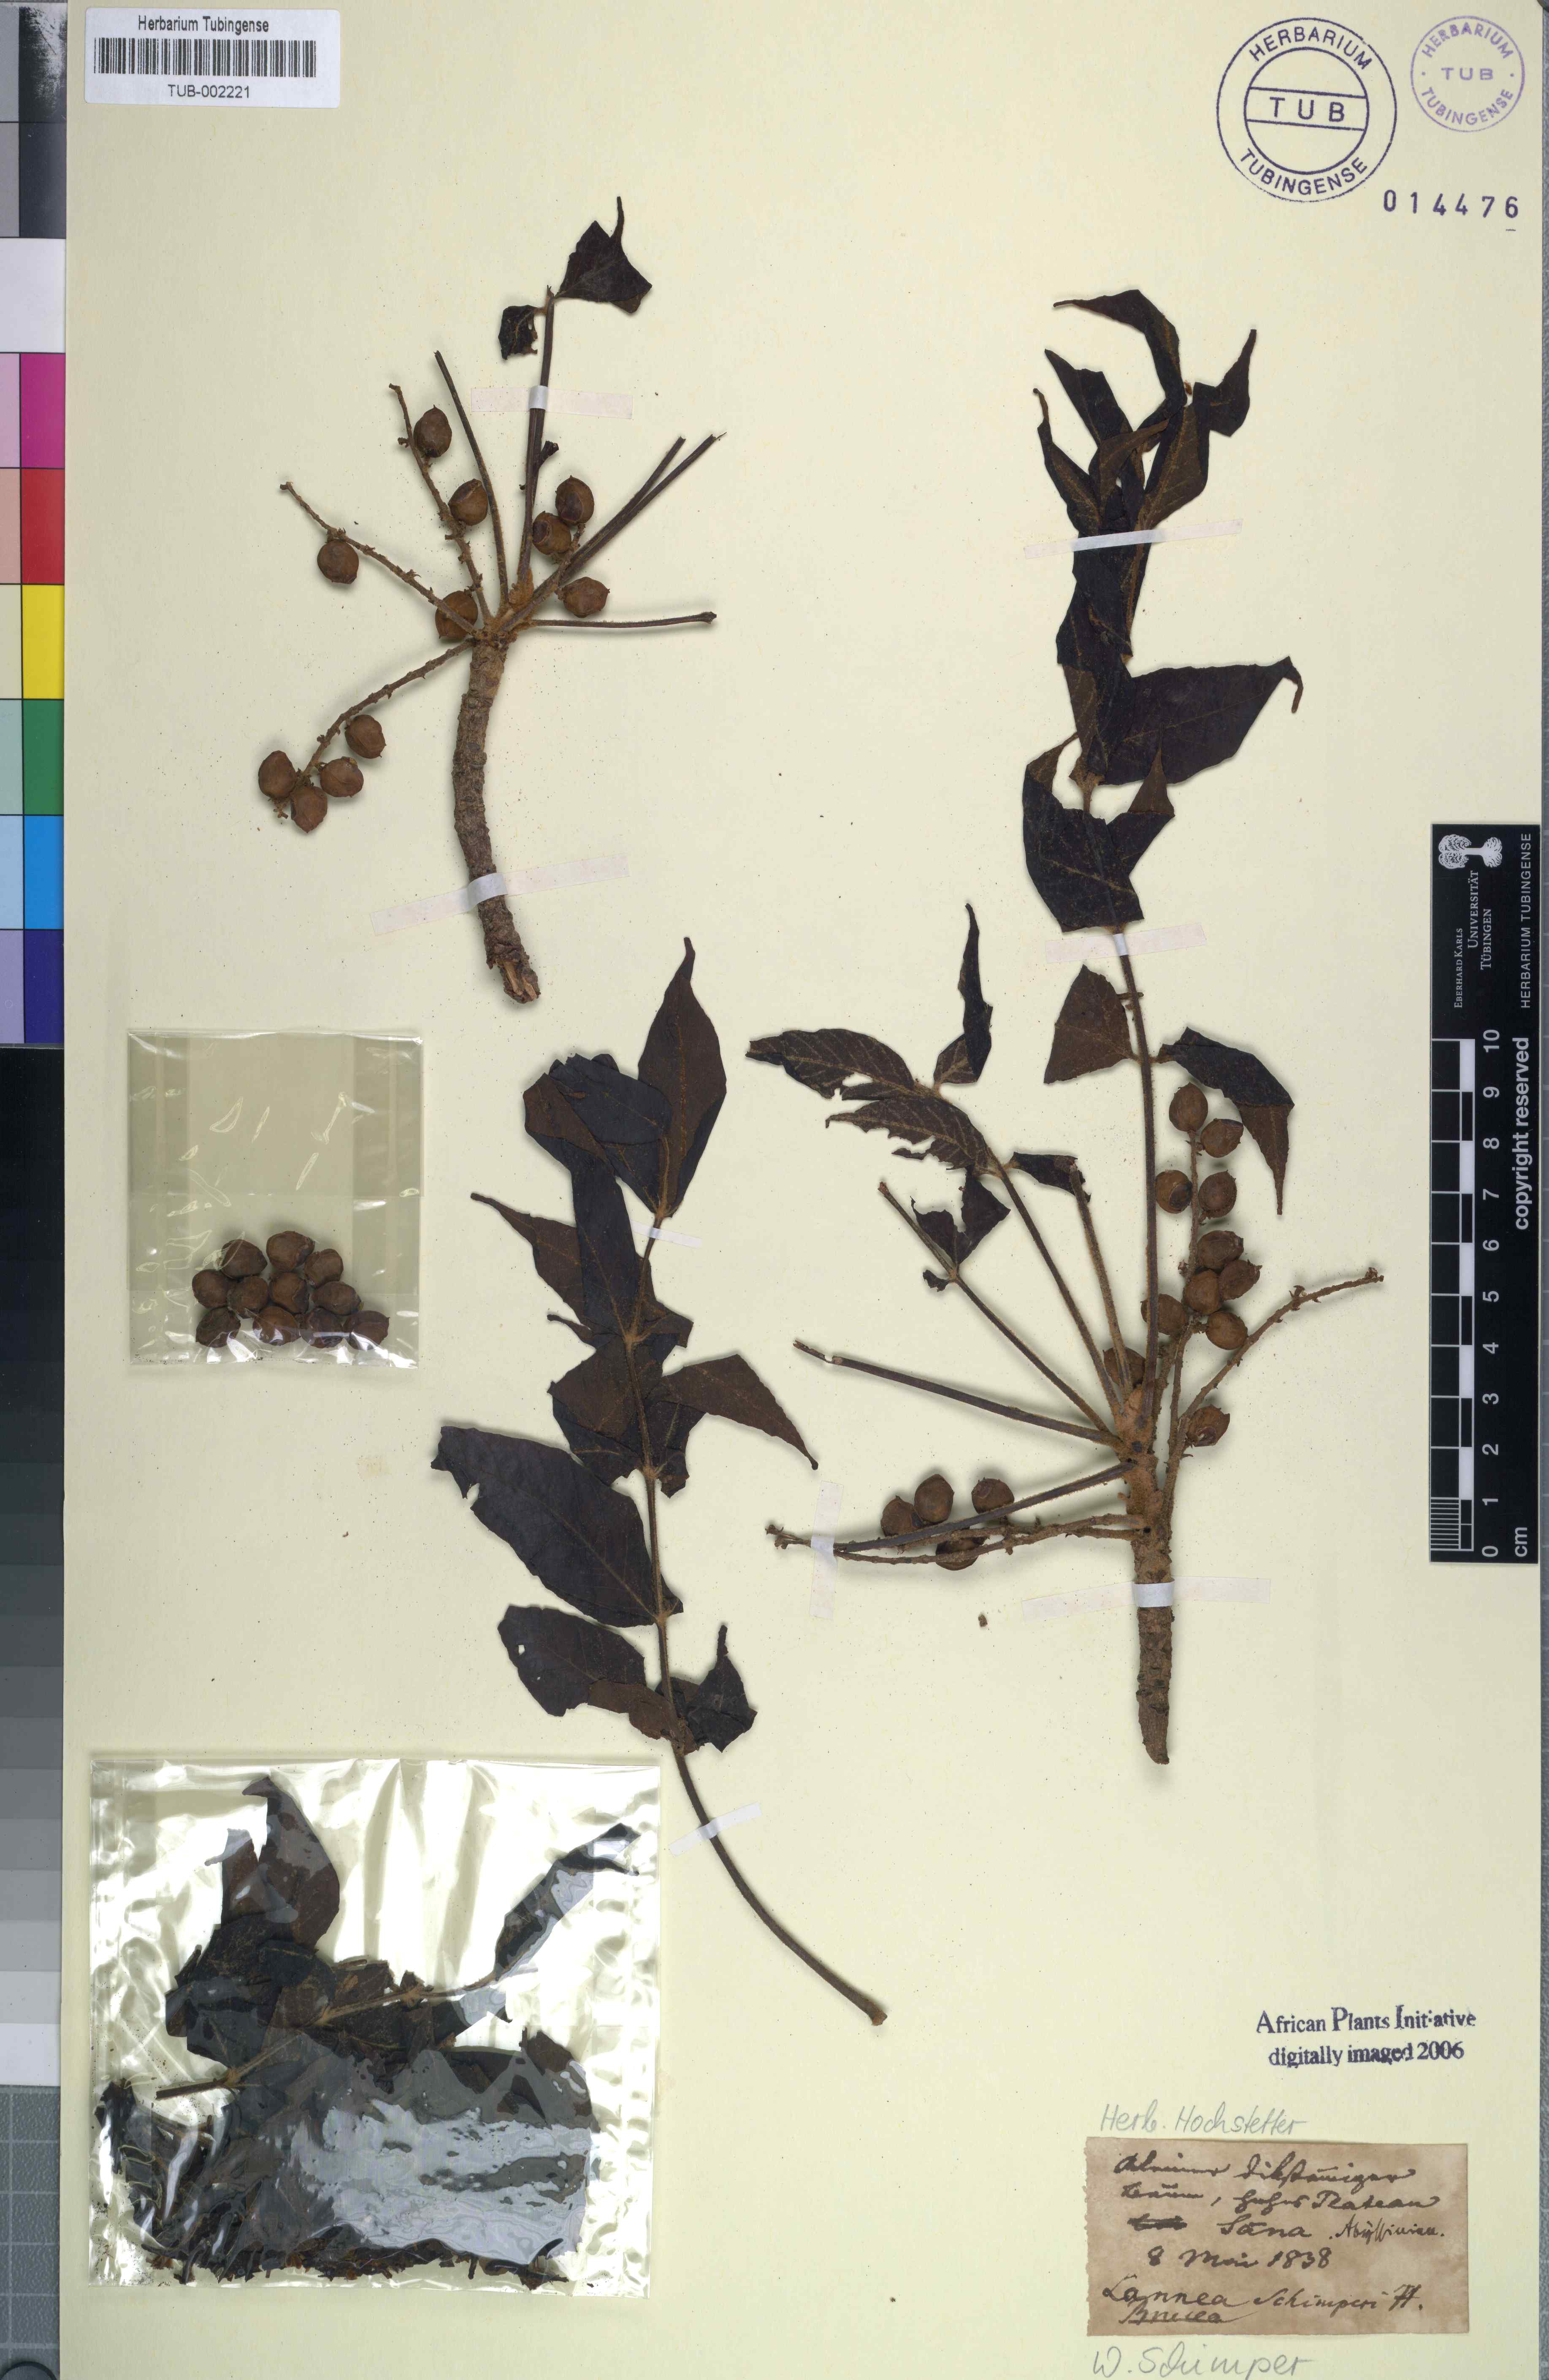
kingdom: Plantae
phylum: Tracheophyta
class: Magnoliopsida
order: Sapindales
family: Anacardiaceae
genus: Lannea
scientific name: Lannea schimperi
